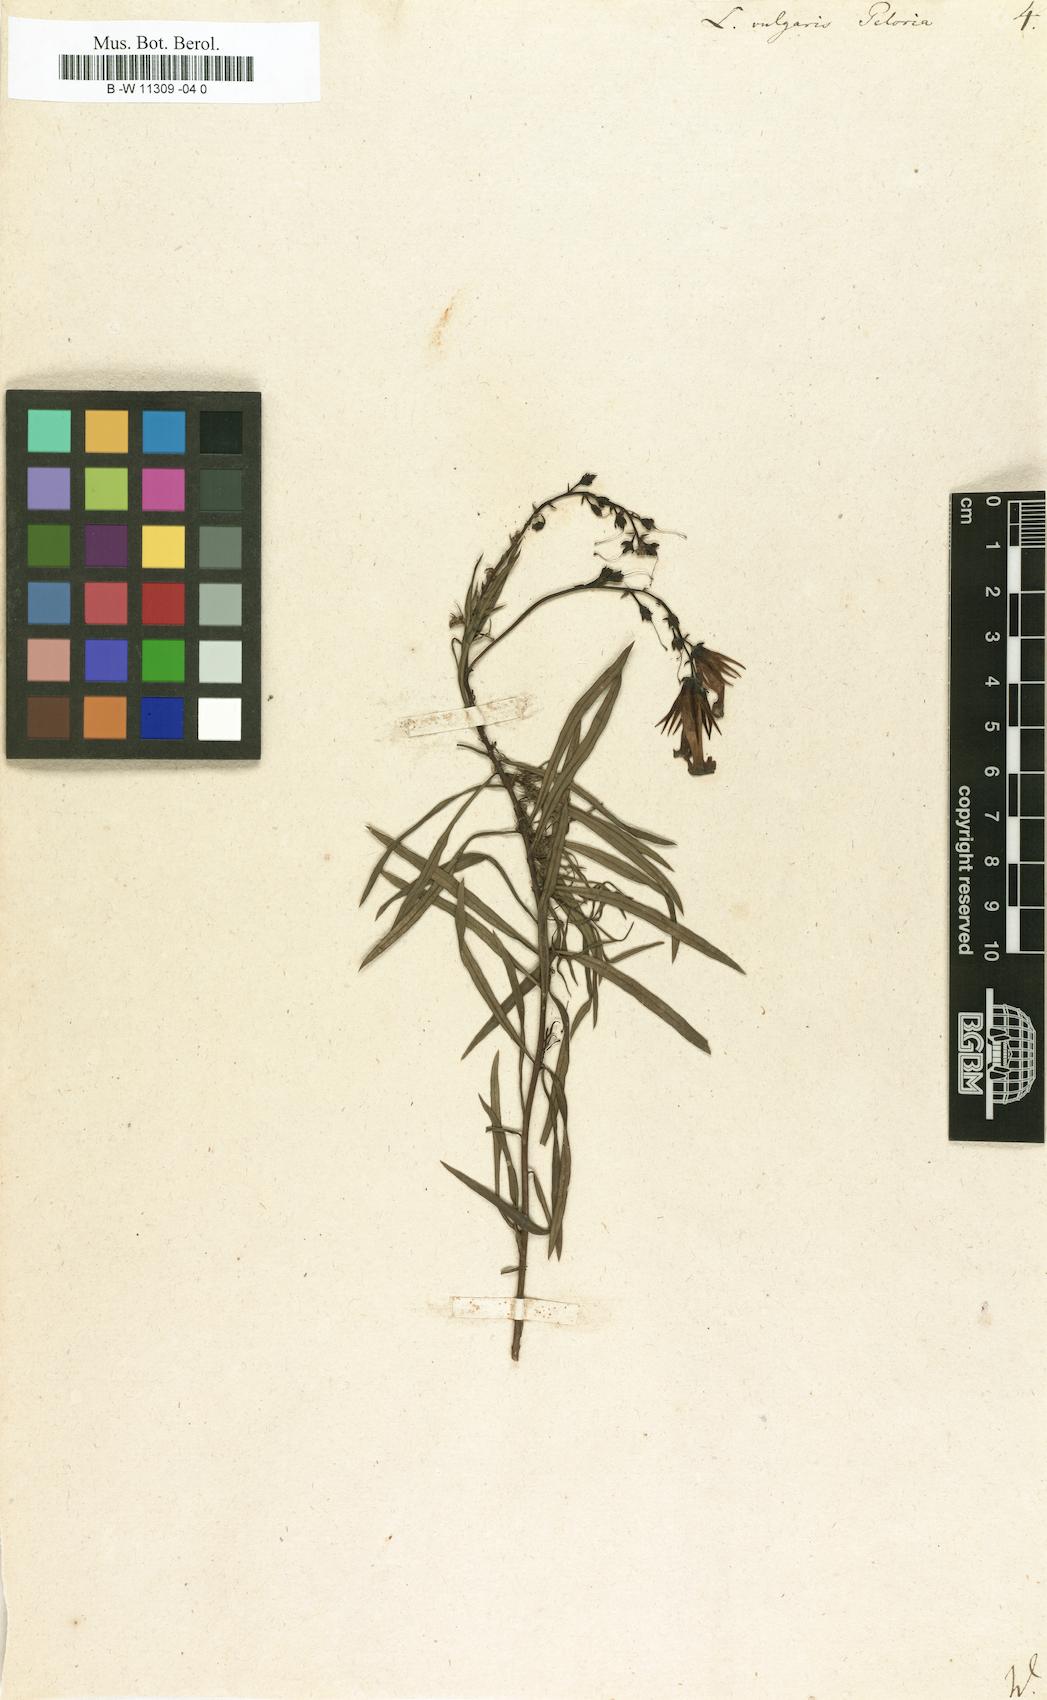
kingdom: Plantae
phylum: Tracheophyta
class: Magnoliopsida
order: Lamiales
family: Plantaginaceae
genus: Linaria
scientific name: Linaria vulgaris
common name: Butter and eggs
